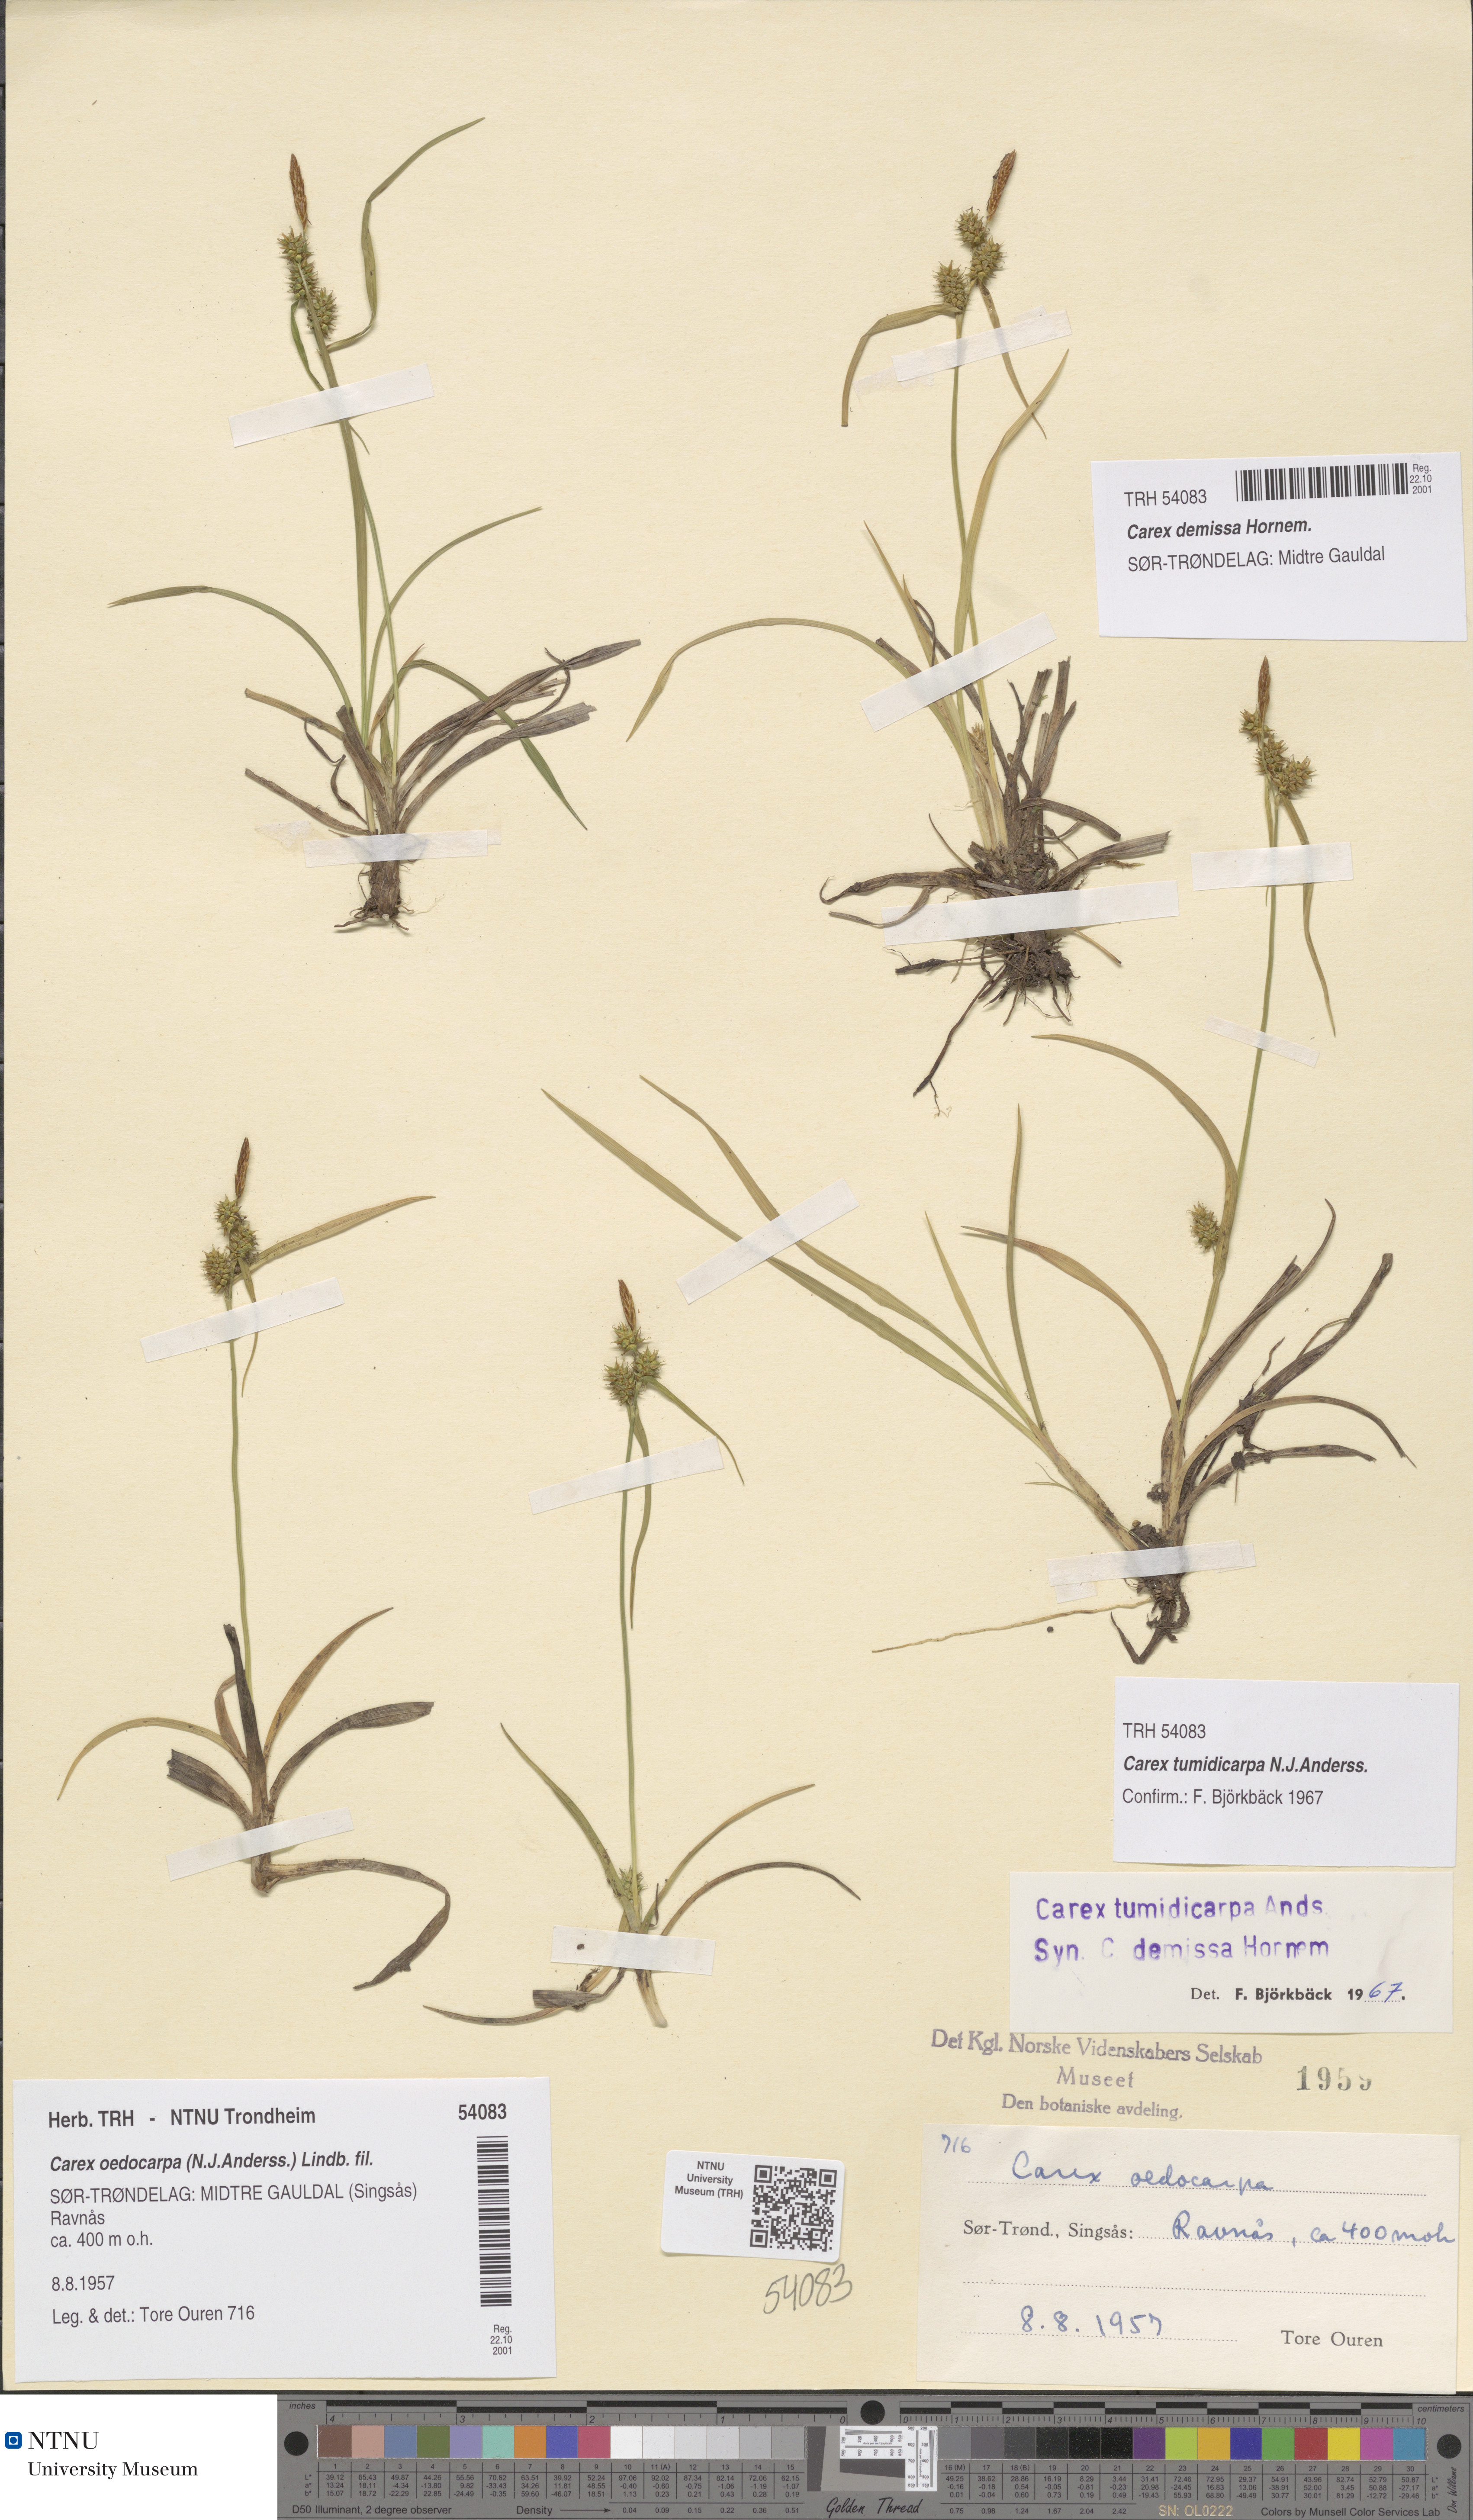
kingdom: Plantae
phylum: Tracheophyta
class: Liliopsida
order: Poales
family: Cyperaceae
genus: Carex
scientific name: Carex demissa
